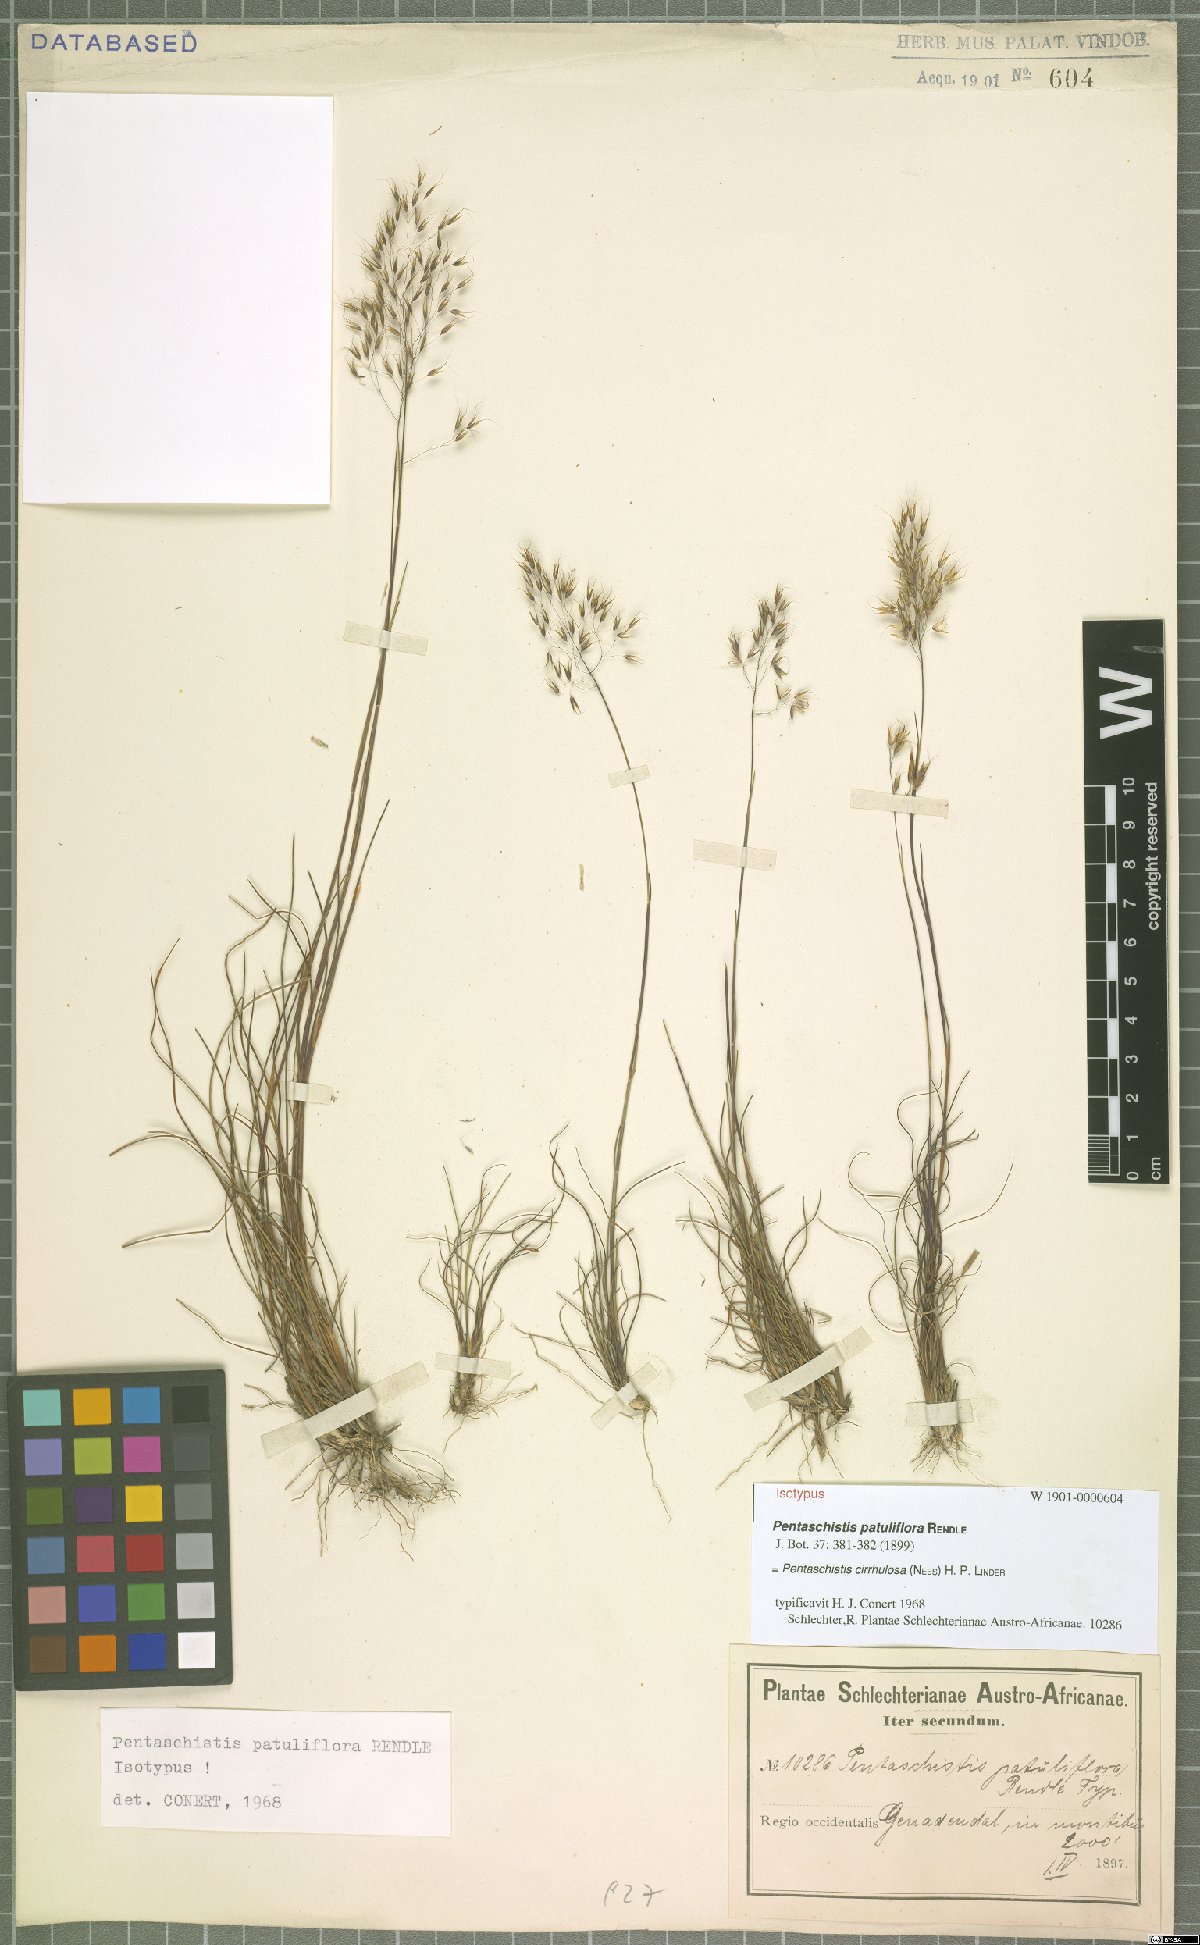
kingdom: Plantae
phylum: Tracheophyta
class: Liliopsida
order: Poales
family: Poaceae
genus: Pentameris
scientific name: Pentameris cirrhulosa
